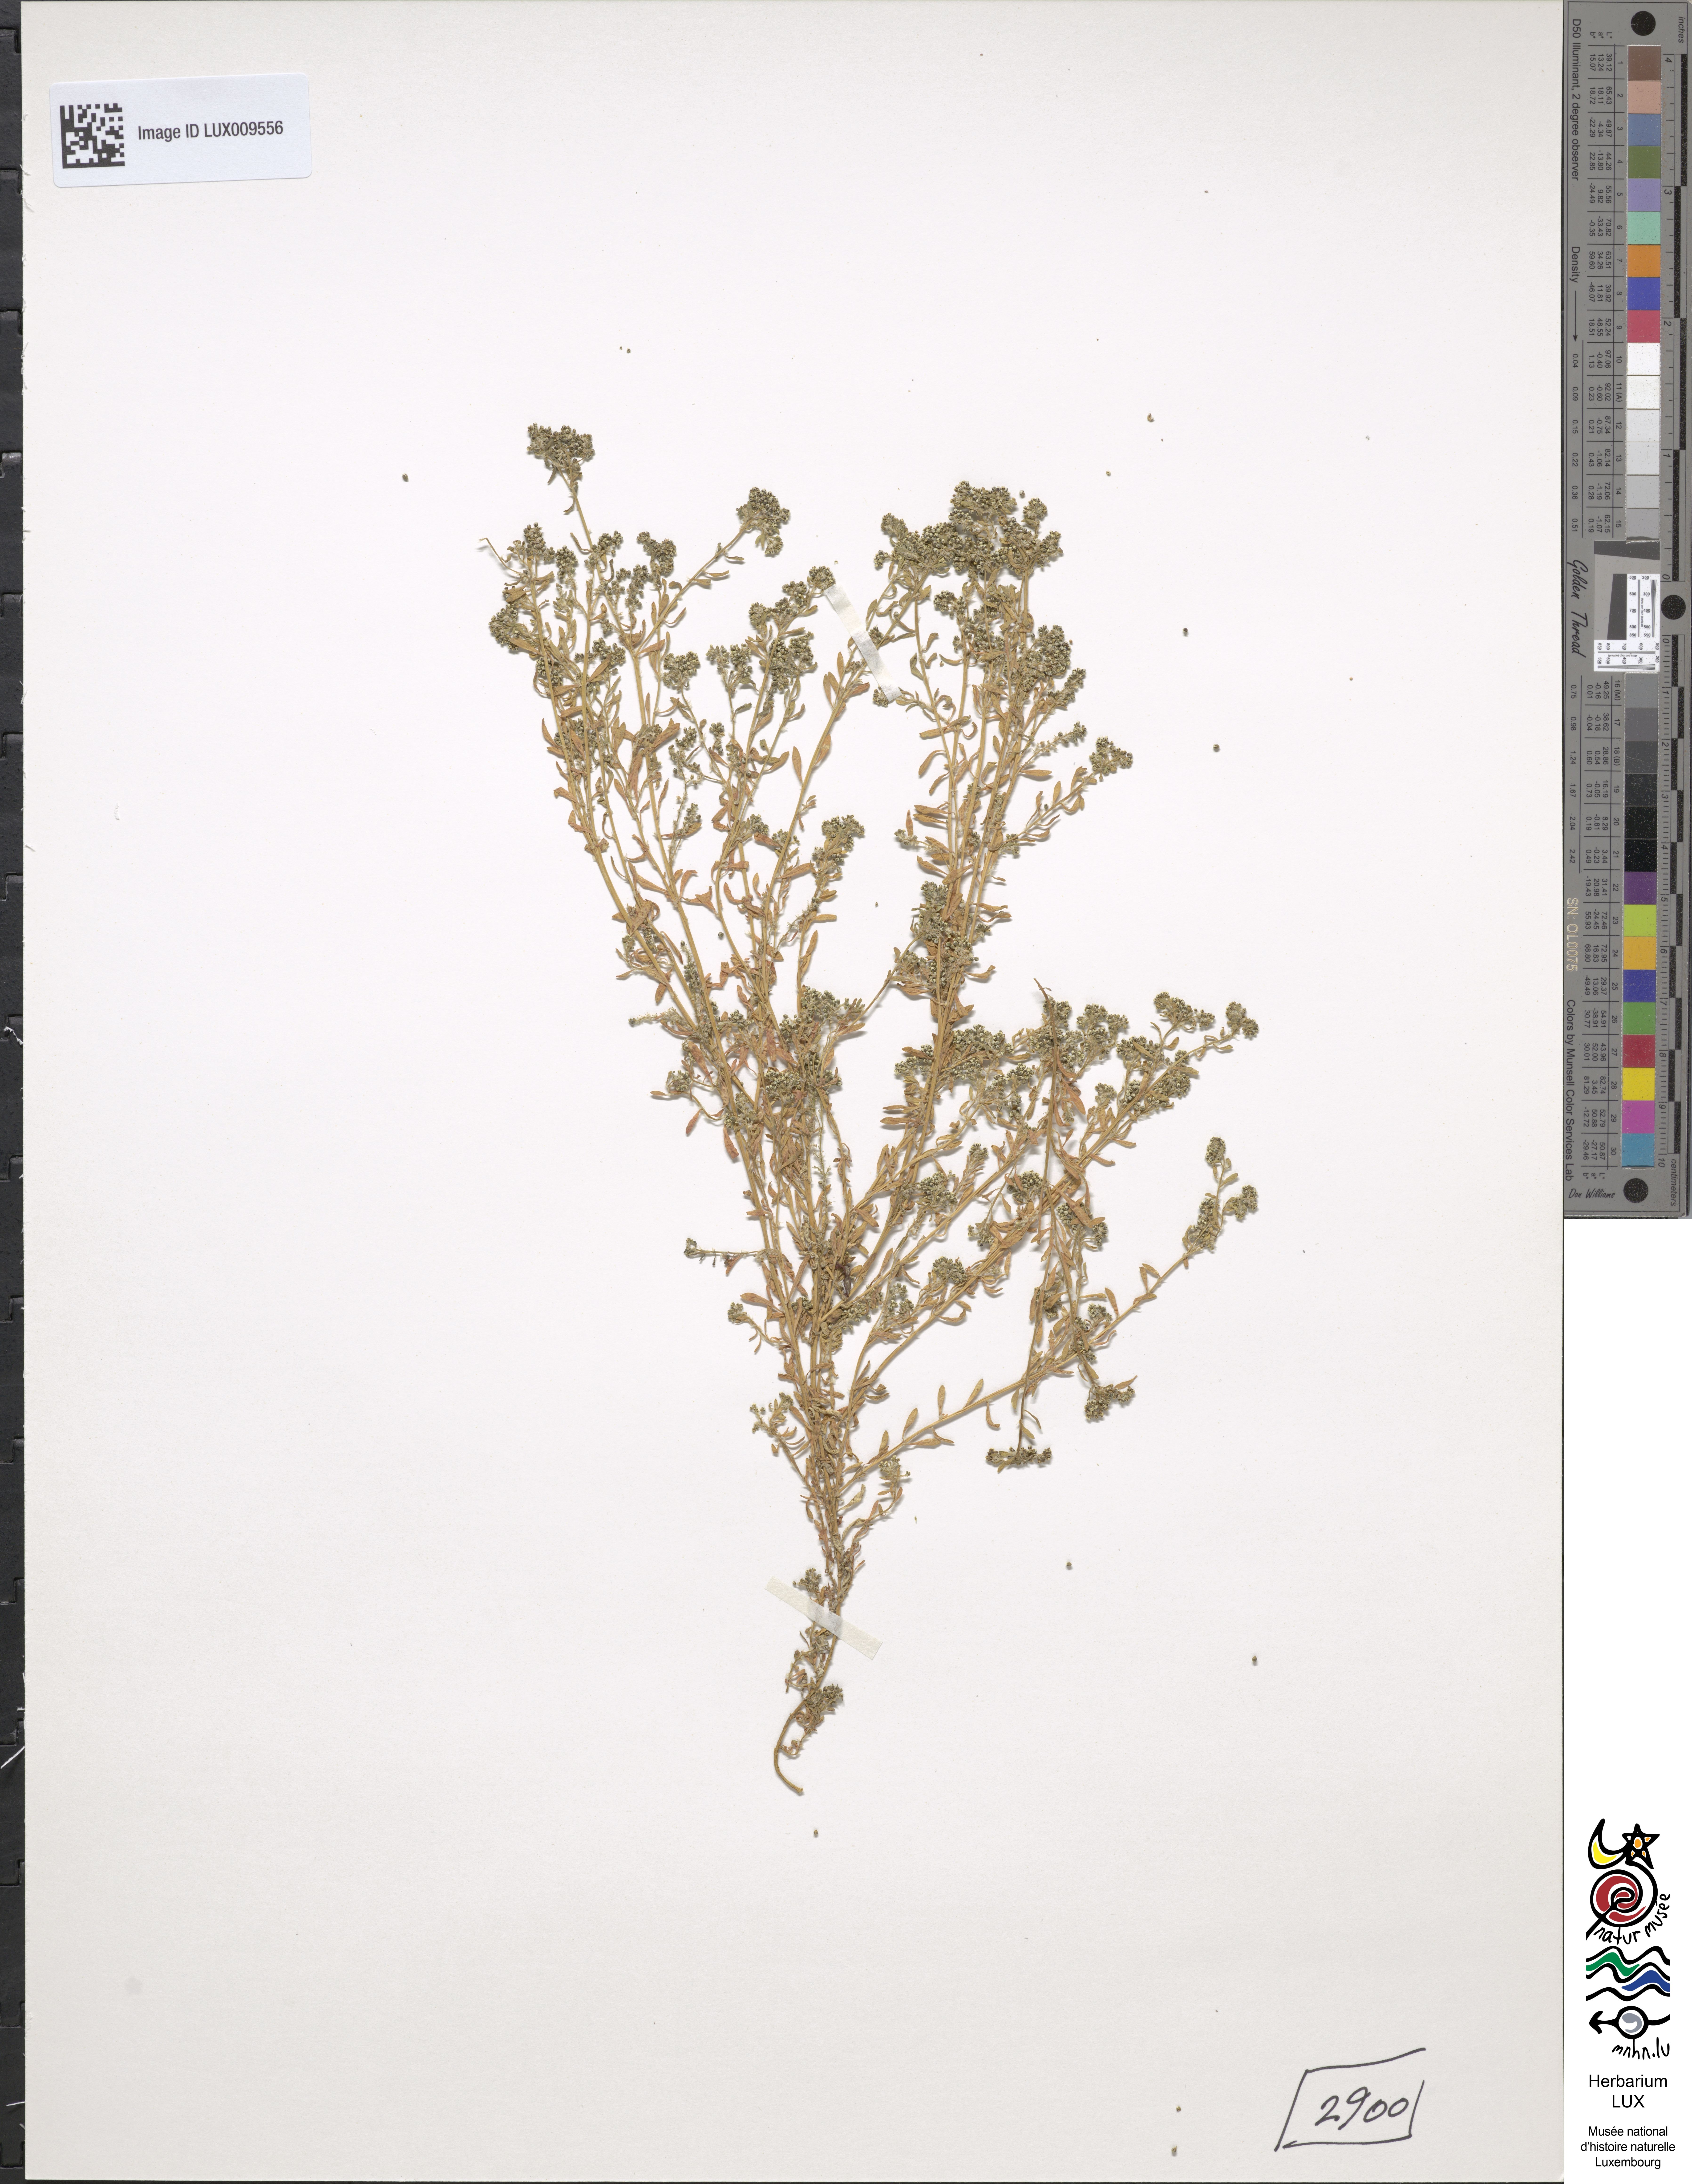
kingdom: Plantae
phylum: Tracheophyta
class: Magnoliopsida
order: Caryophyllales
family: Caryophyllaceae
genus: Corrigiola
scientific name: Corrigiola litoralis
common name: Strapwort
